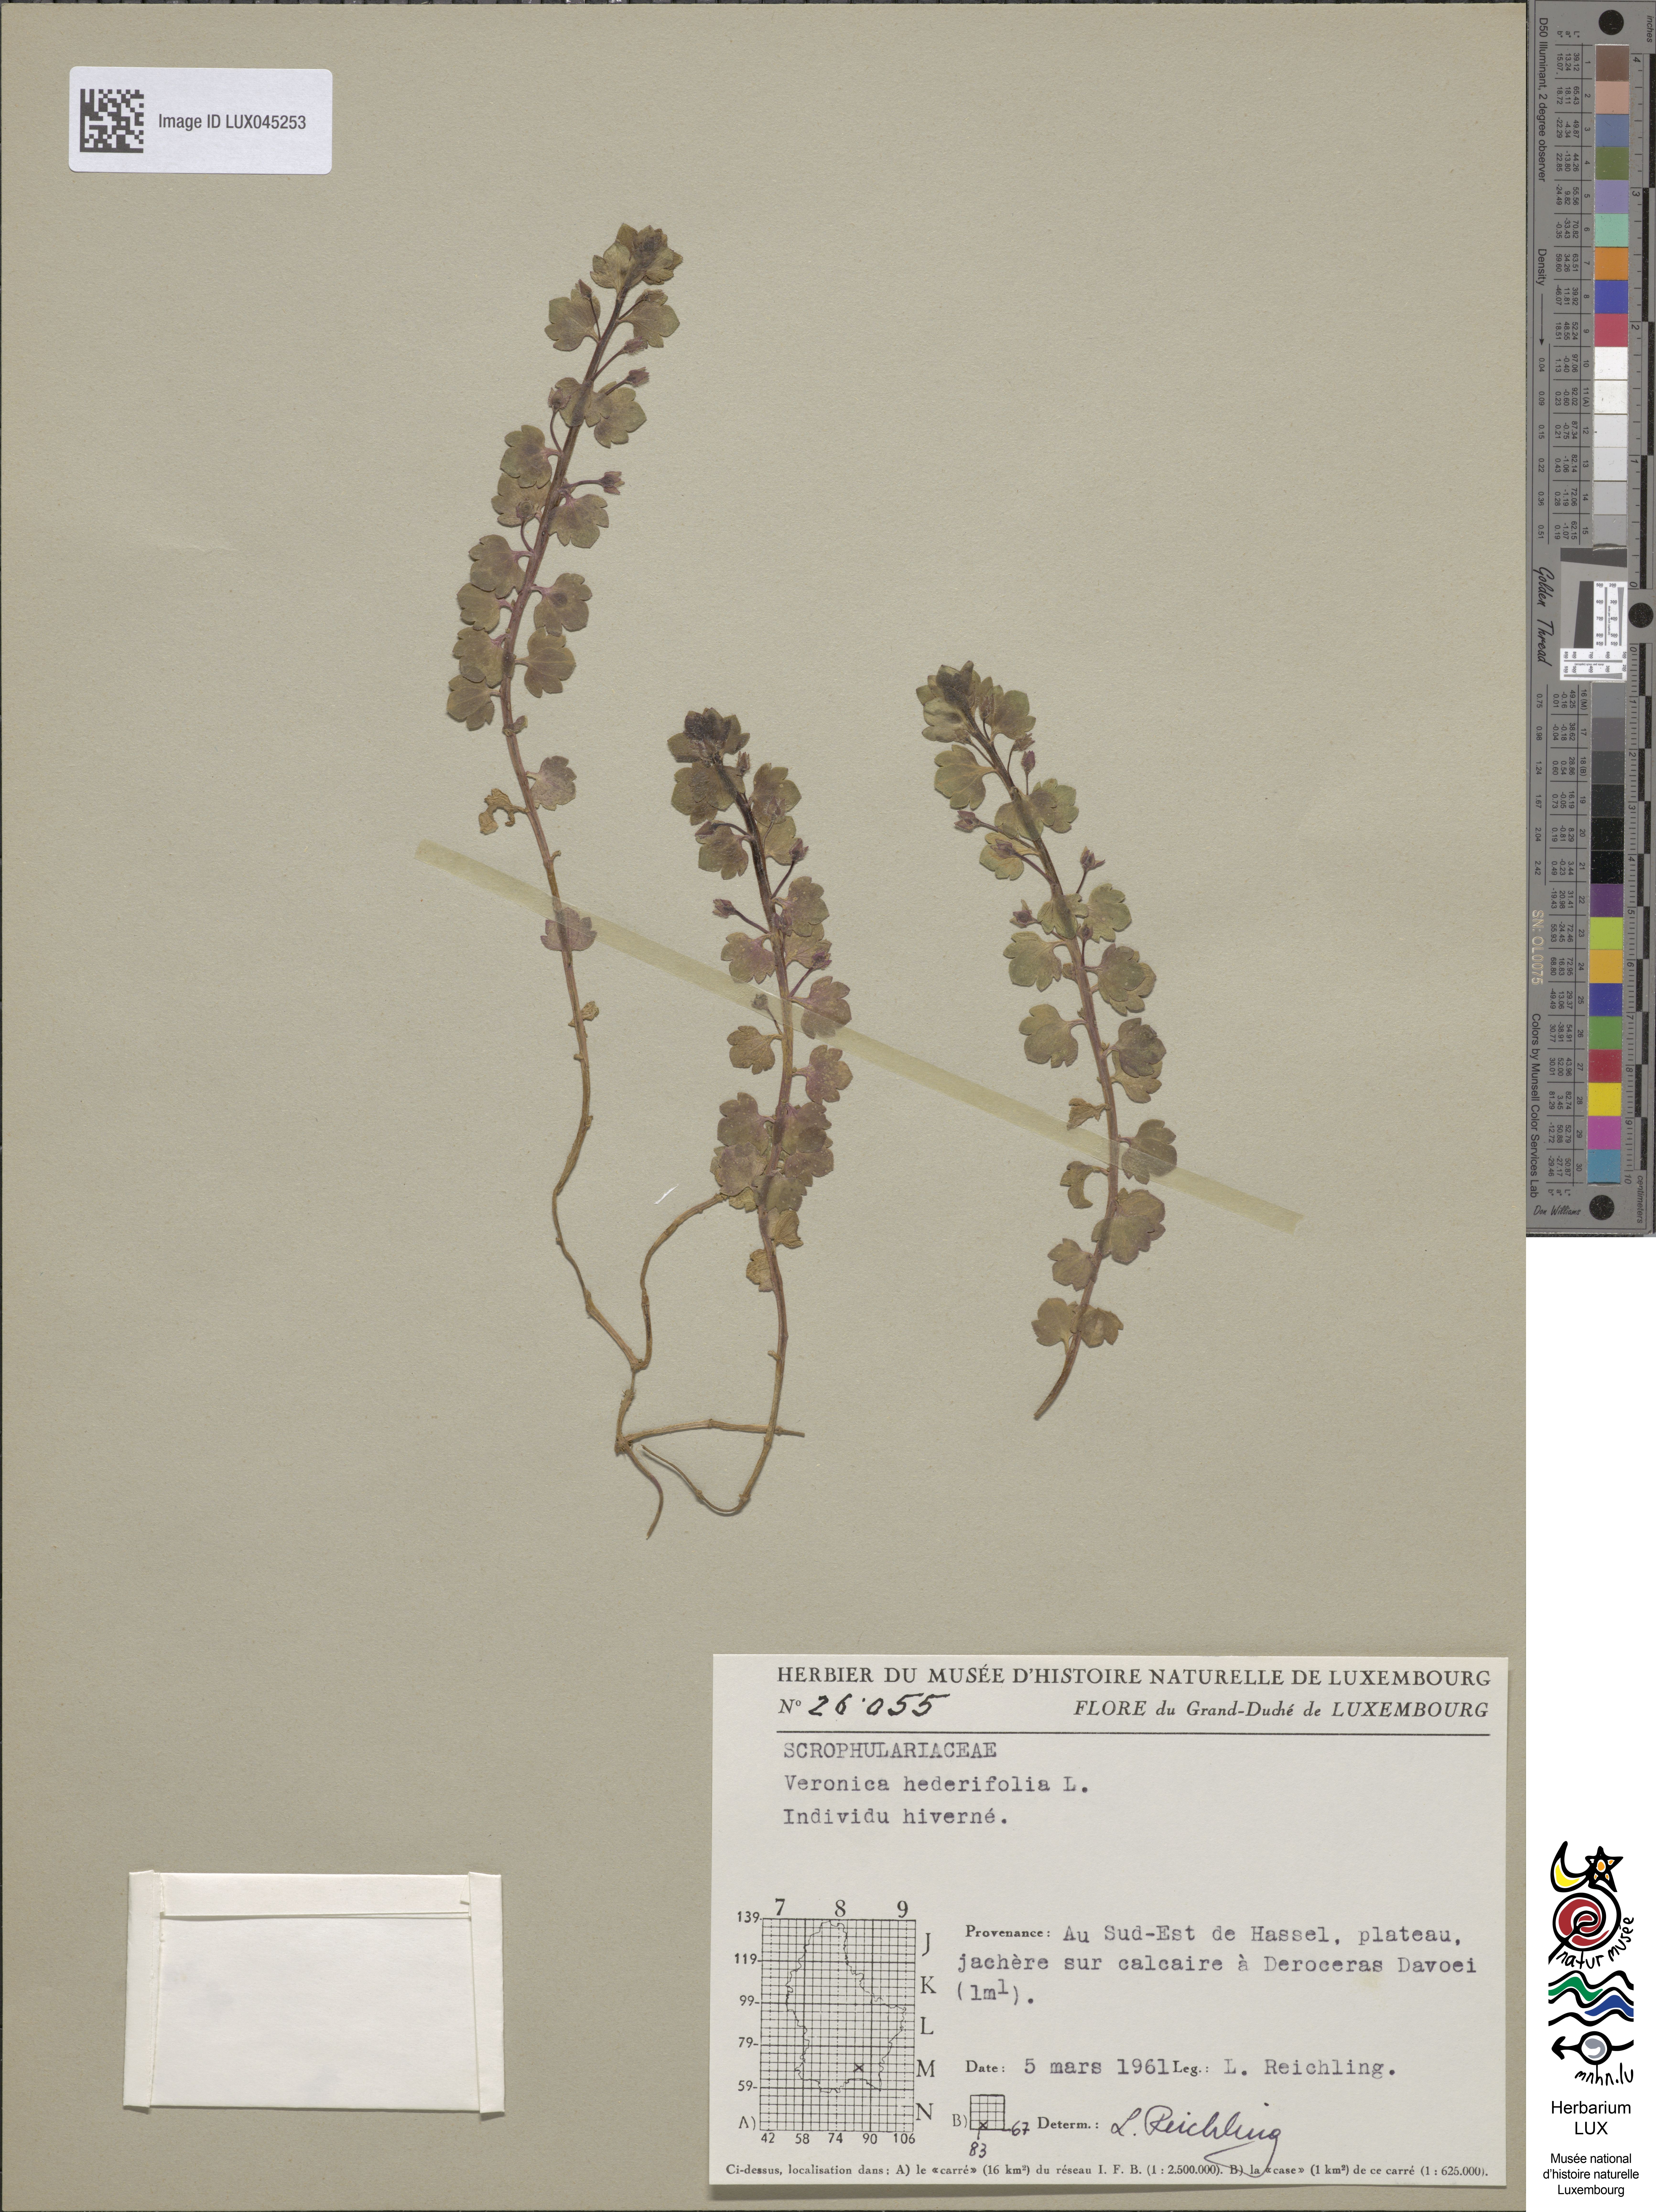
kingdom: Plantae
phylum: Tracheophyta
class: Magnoliopsida
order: Lamiales
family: Plantaginaceae
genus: Veronica
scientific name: Veronica hederifolia
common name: Ivy-leaved speedwell
